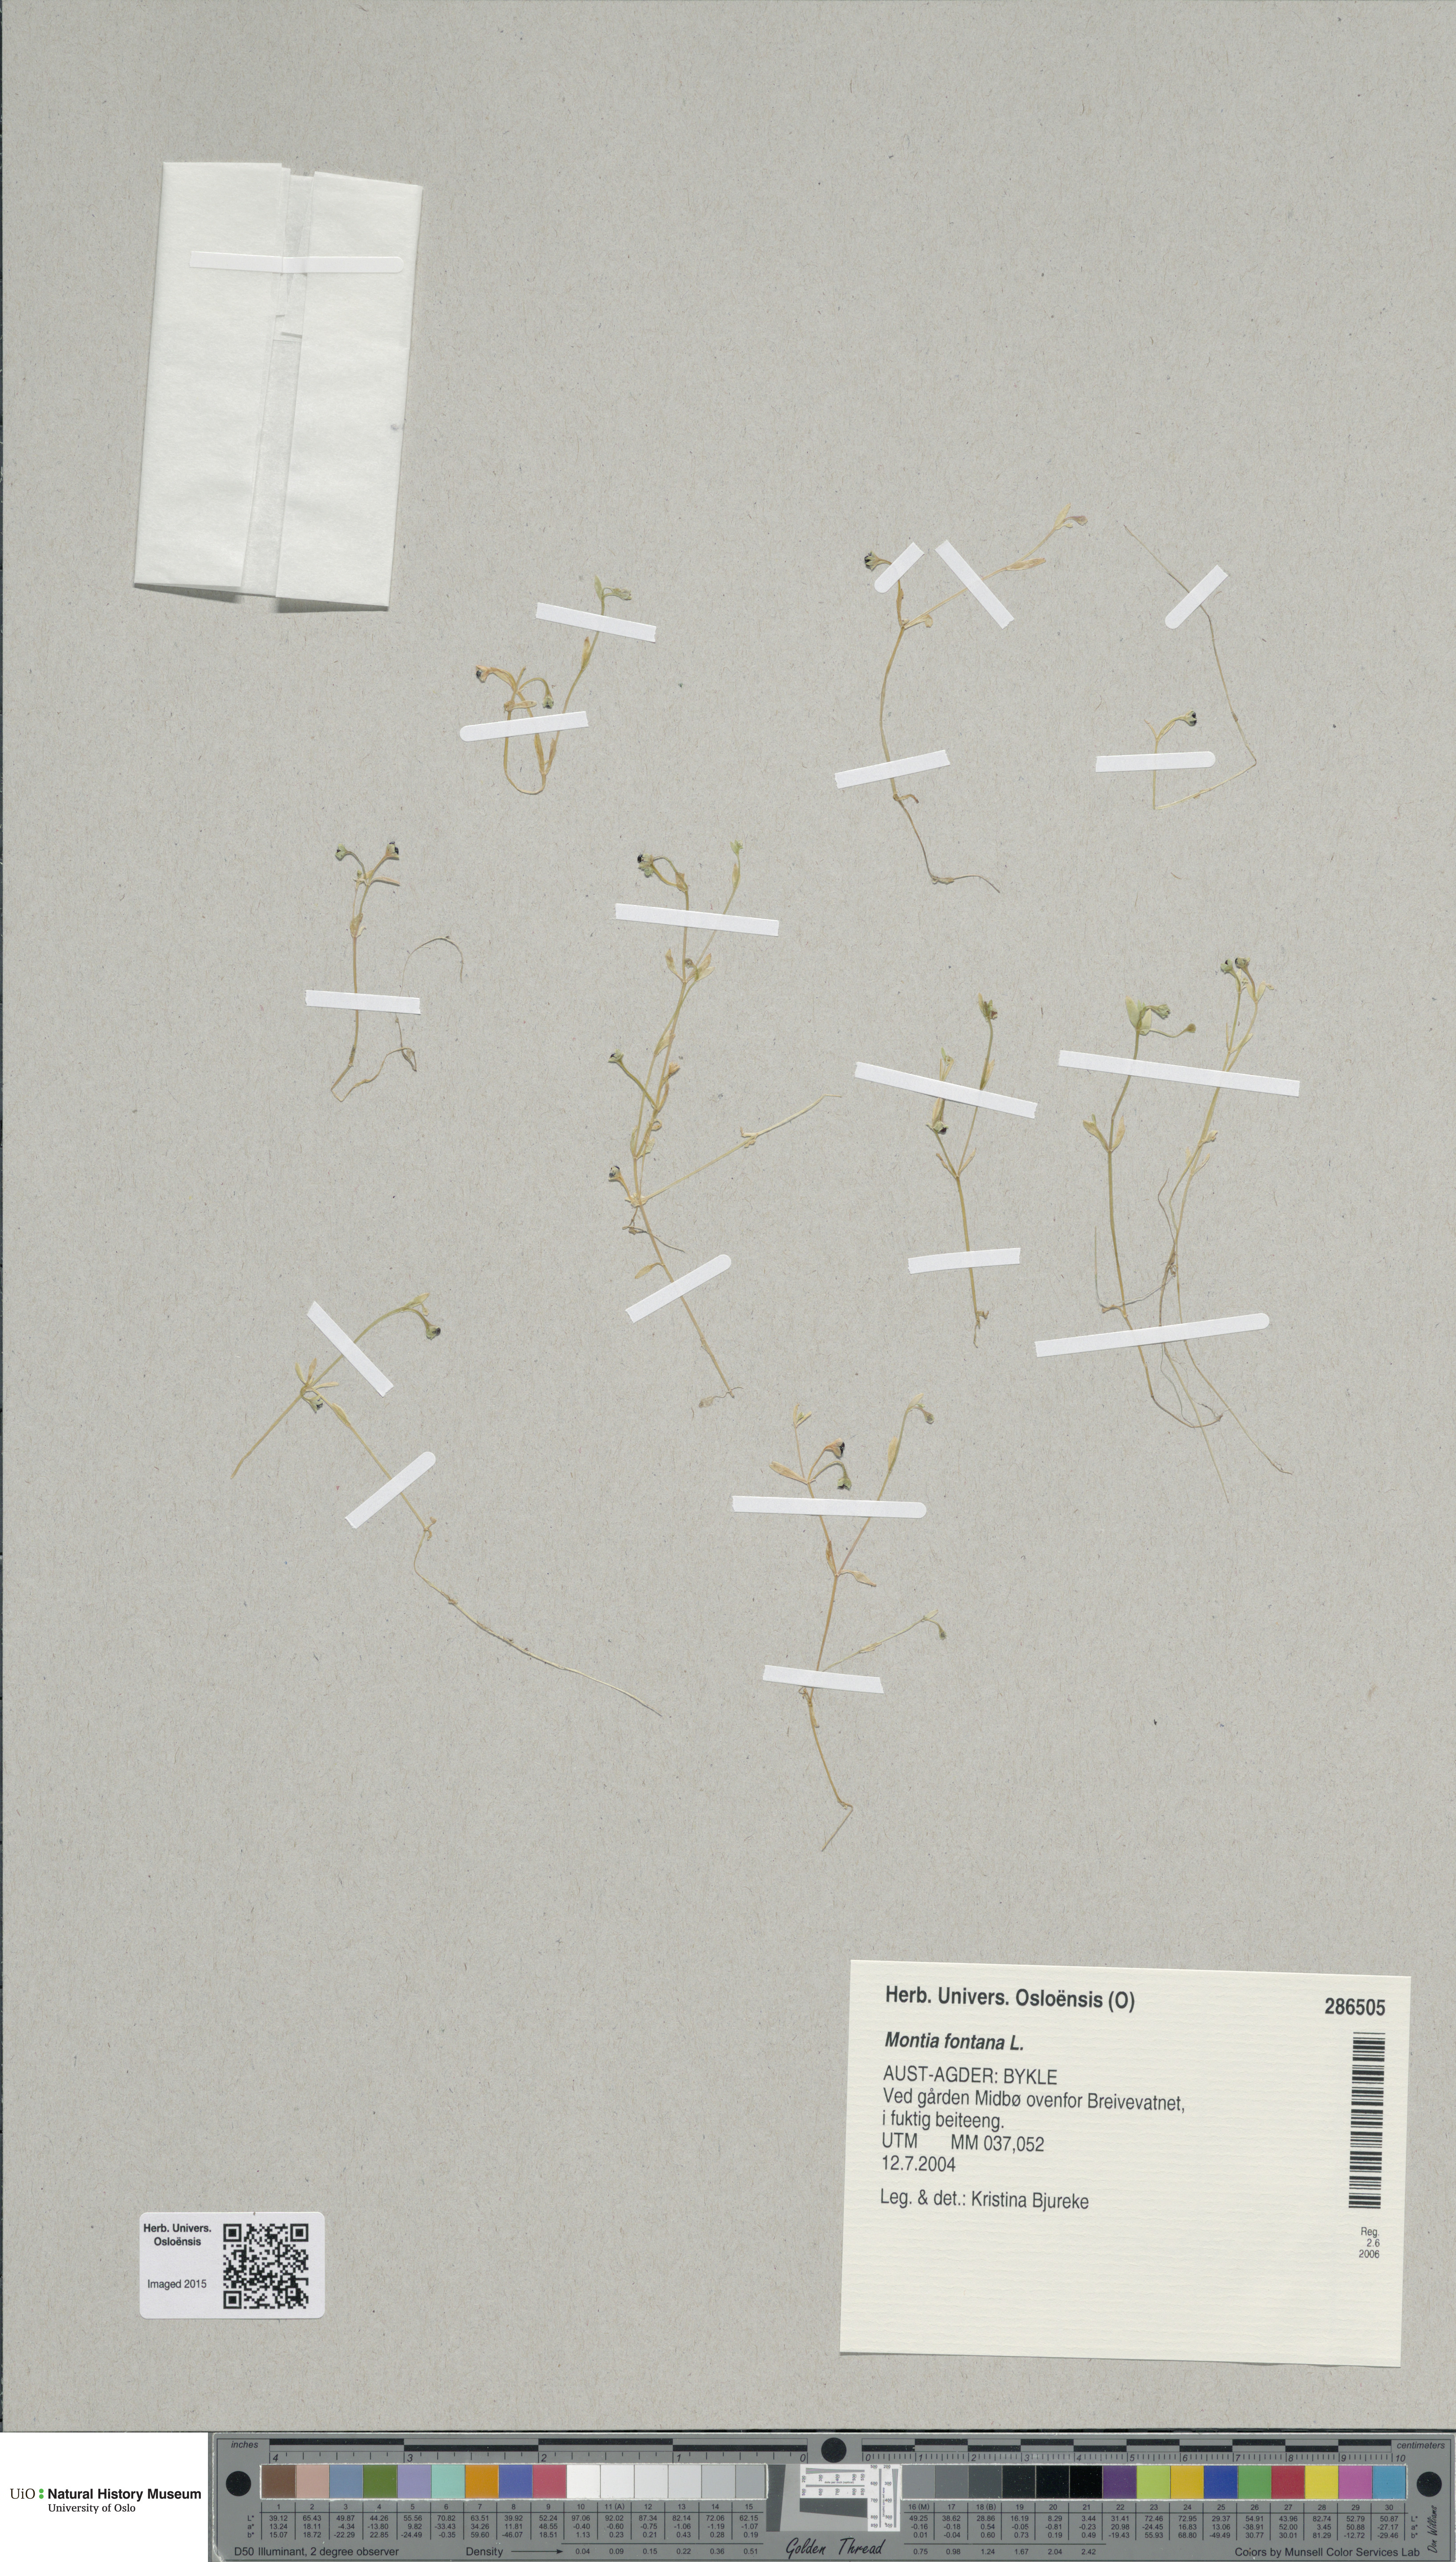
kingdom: Plantae
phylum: Tracheophyta
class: Magnoliopsida
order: Caryophyllales
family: Montiaceae
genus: Montia
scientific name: Montia fontana
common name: Blinks
